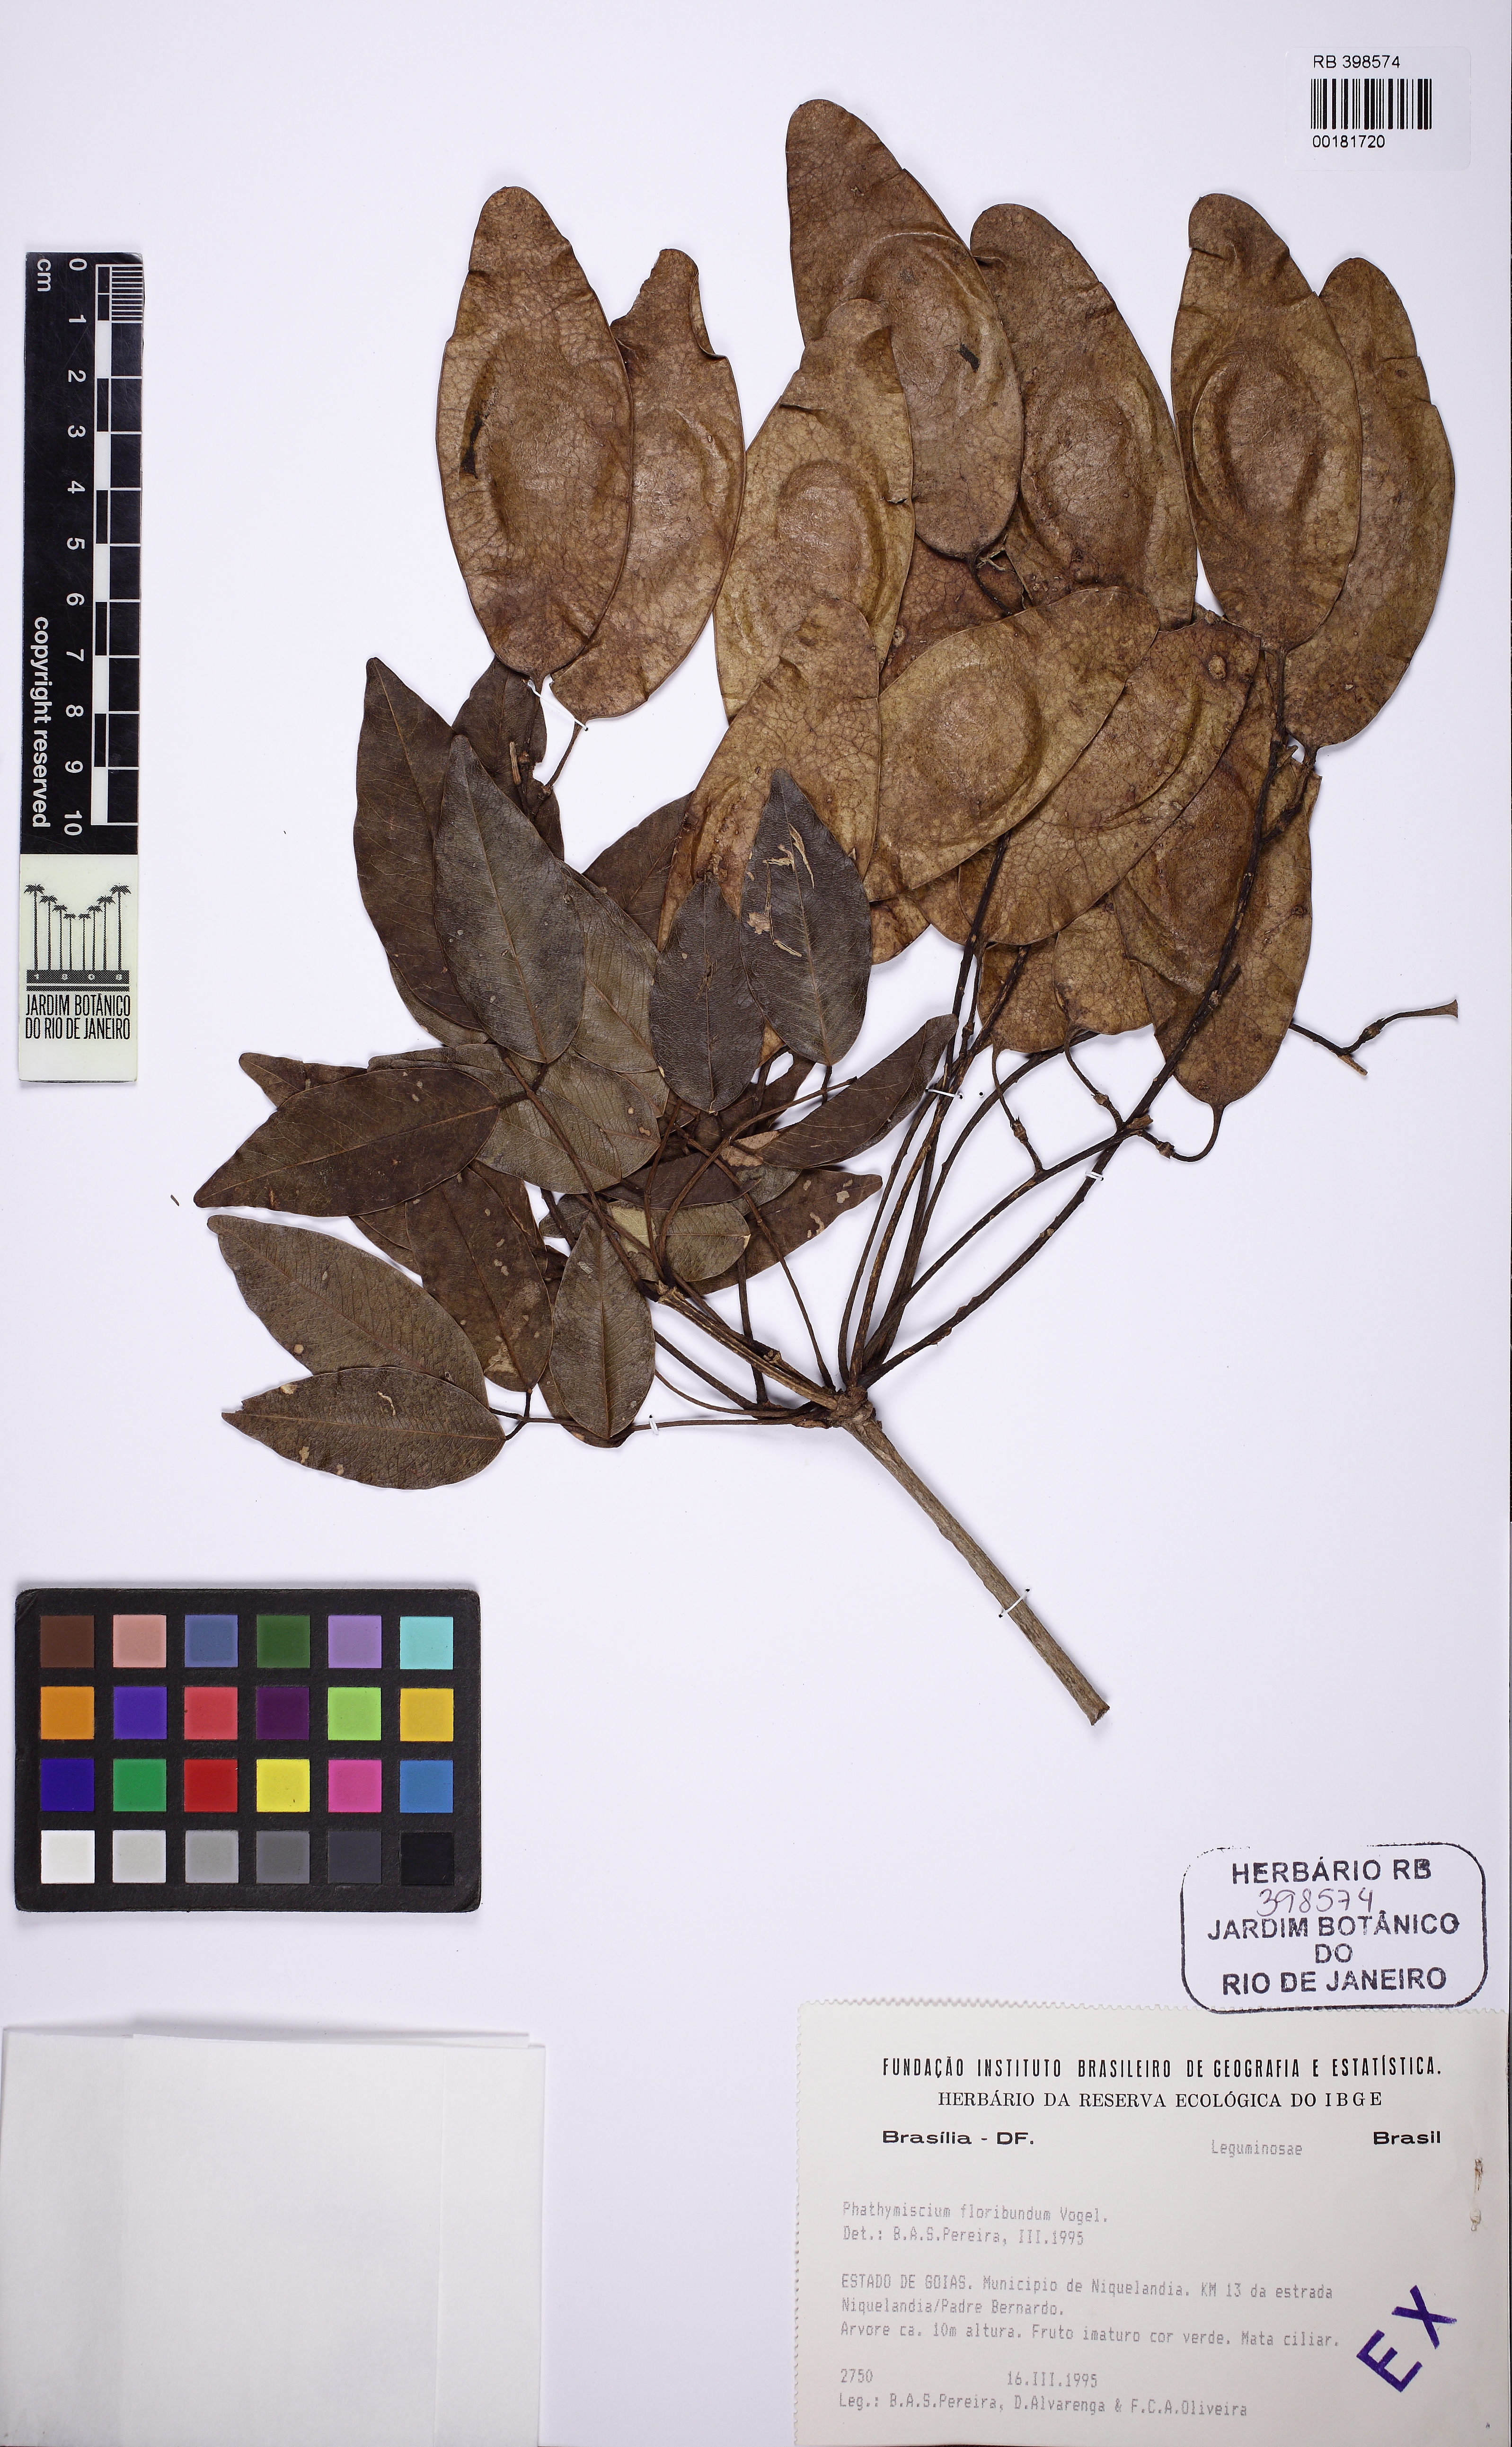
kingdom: Plantae
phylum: Tracheophyta
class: Magnoliopsida
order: Fabales
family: Fabaceae
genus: Platymiscium
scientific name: Platymiscium floribundum
